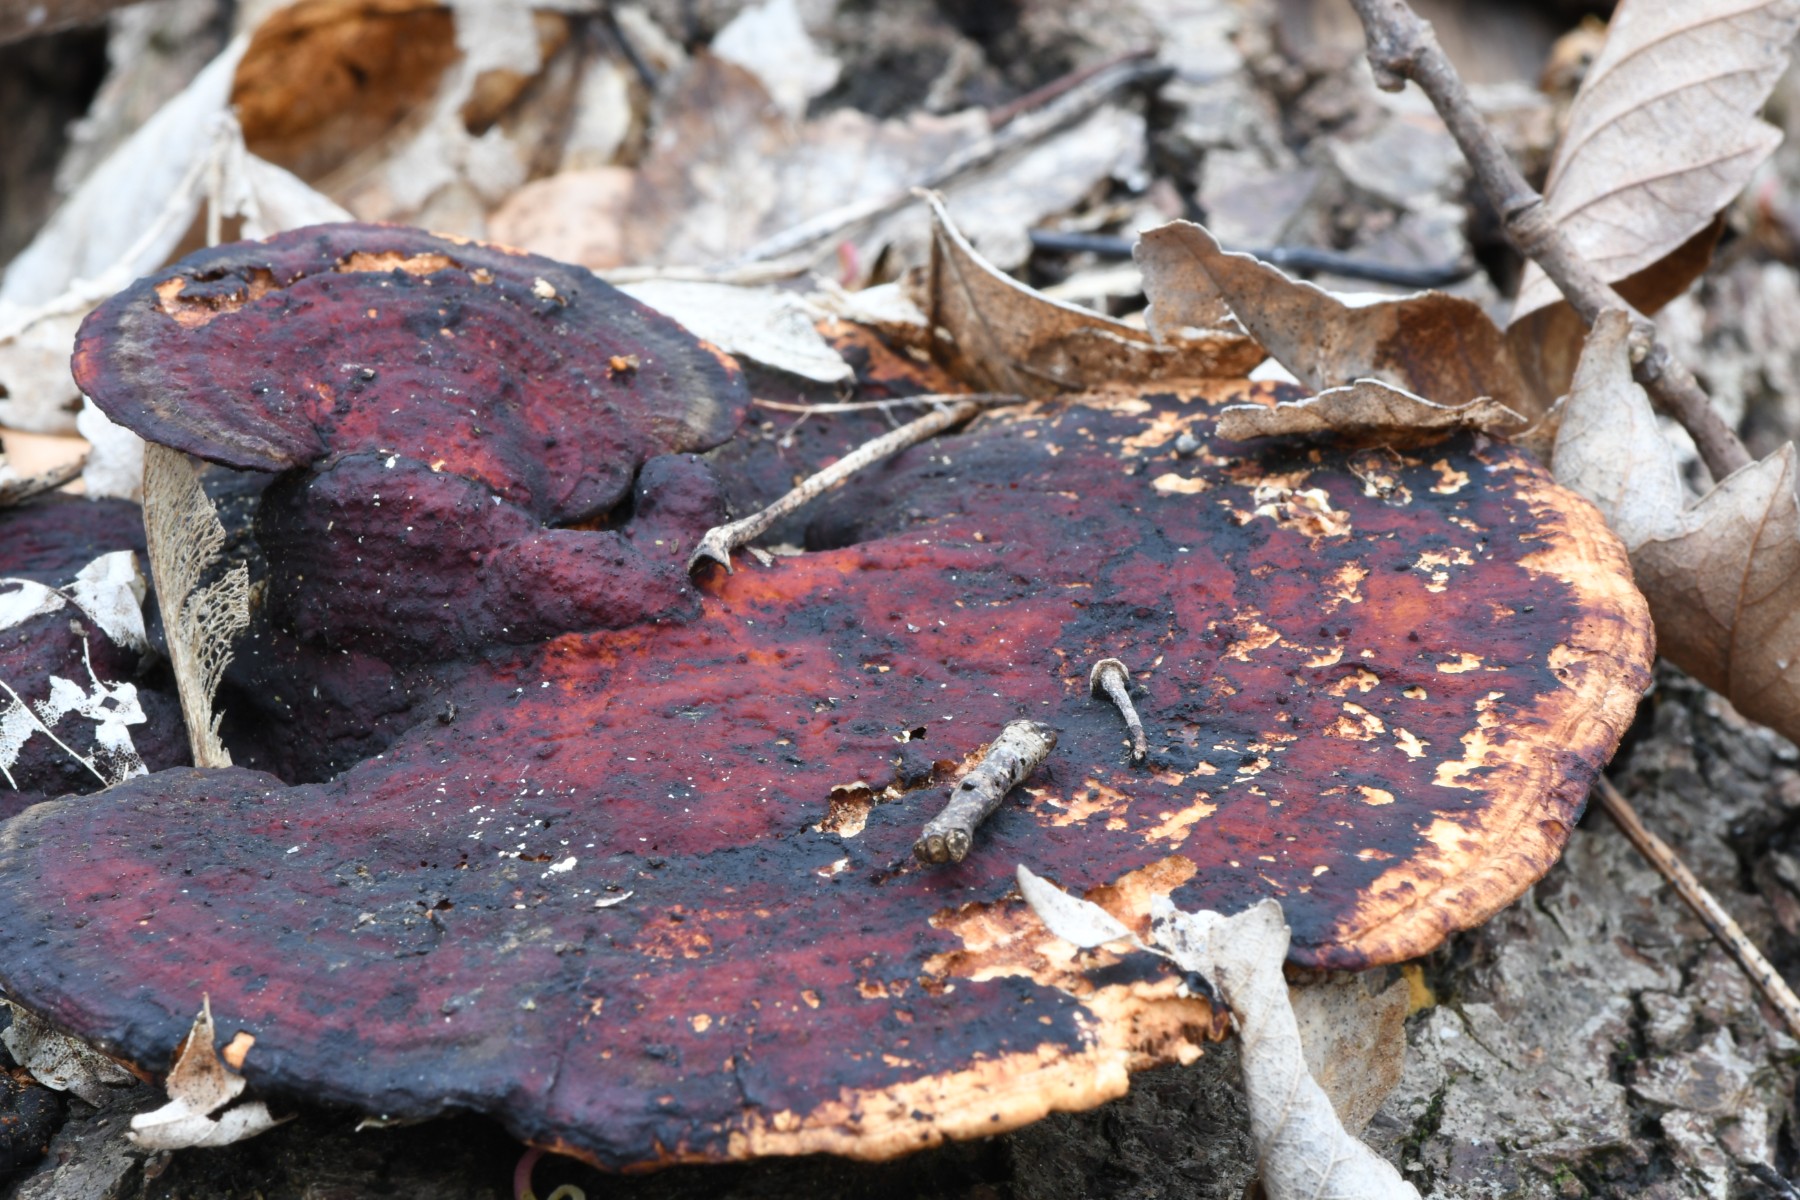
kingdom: Fungi
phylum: Basidiomycota
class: Agaricomycetes
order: Polyporales
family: Polyporaceae
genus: Daedaleopsis
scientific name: Daedaleopsis confragosa
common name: rødmende læderporesvamp
